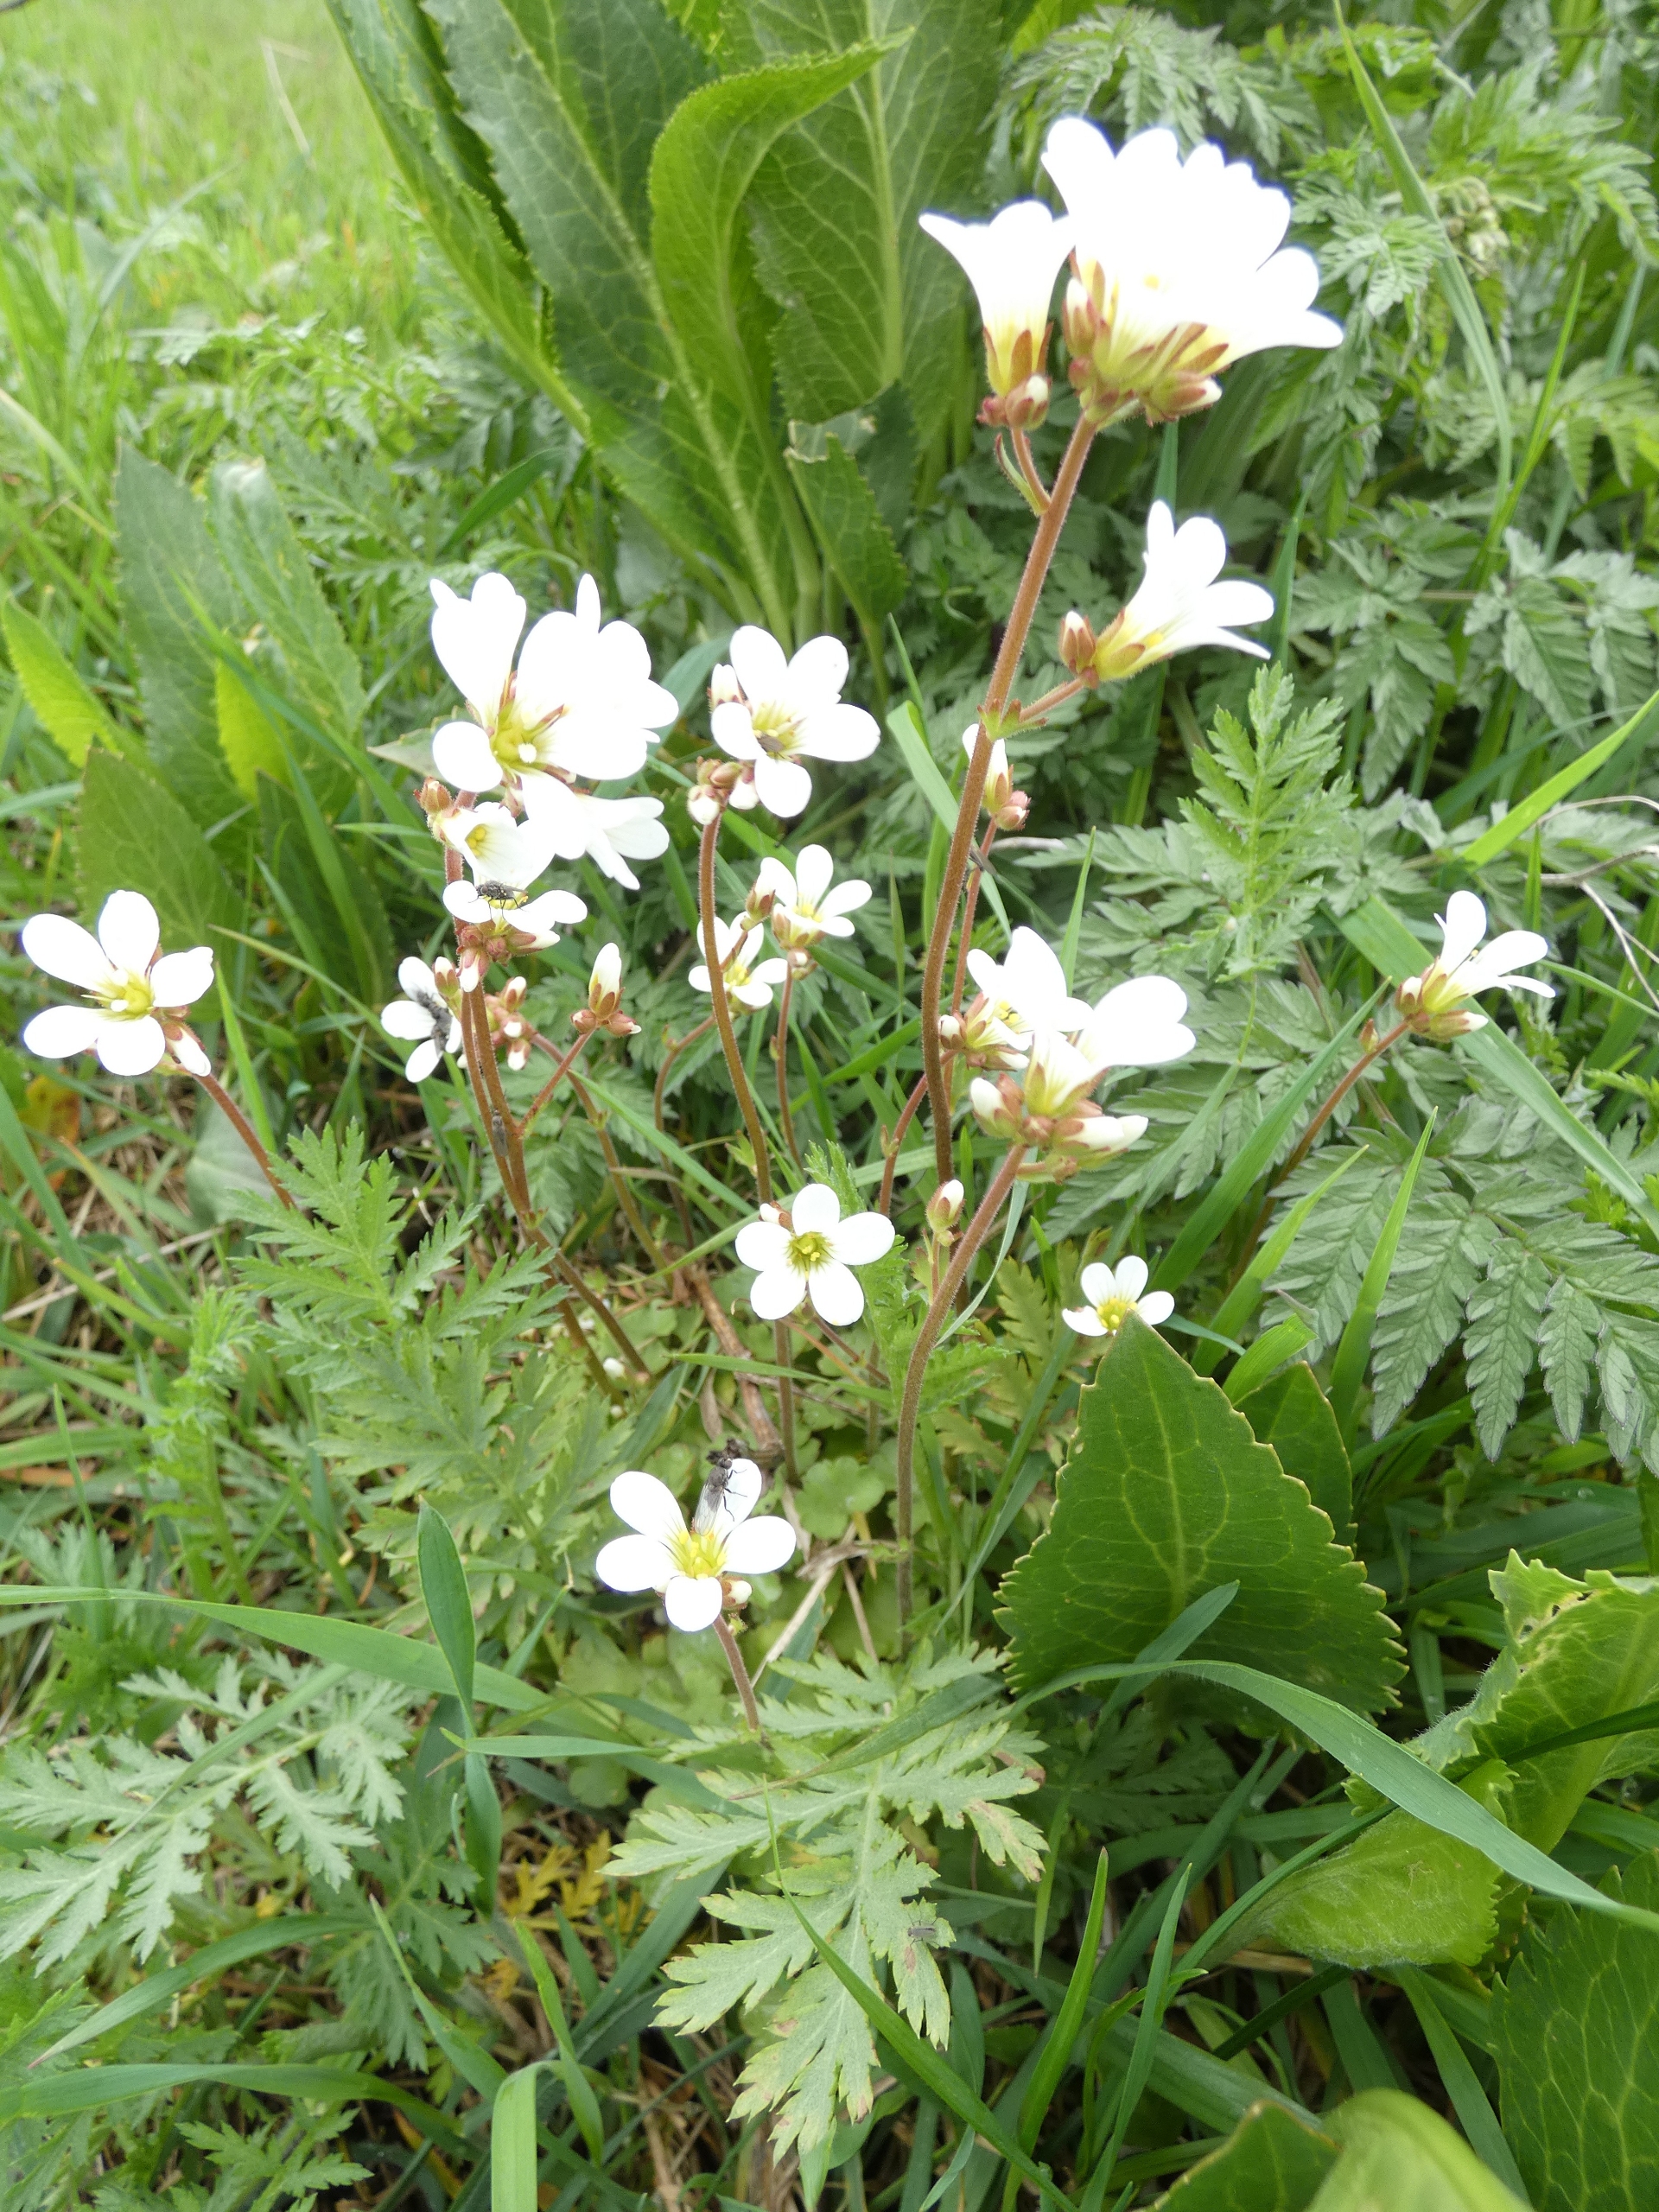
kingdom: Plantae
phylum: Tracheophyta
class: Magnoliopsida
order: Saxifragales
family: Saxifragaceae
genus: Saxifraga
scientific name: Saxifraga granulata
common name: Kornet stenbræk
